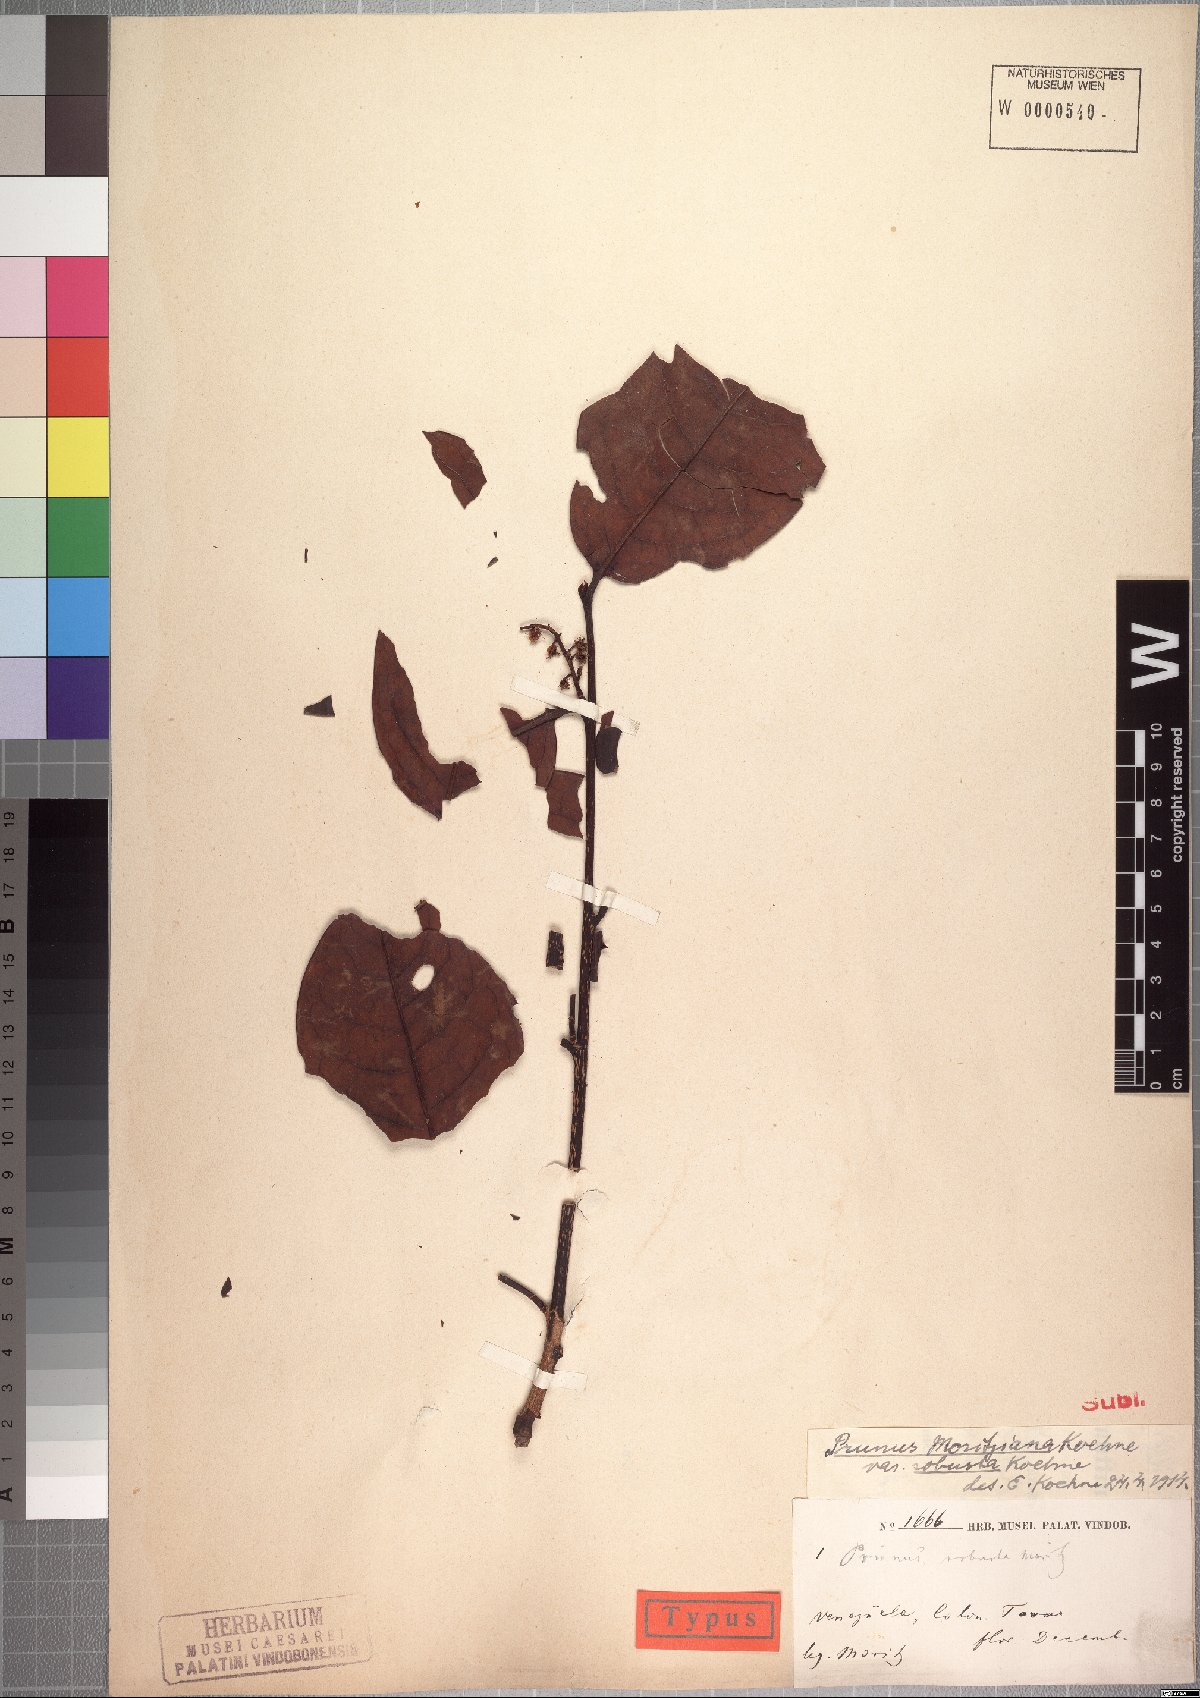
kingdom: Plantae
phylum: Tracheophyta
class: Magnoliopsida
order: Rosales
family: Rosaceae
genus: Prunus
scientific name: Prunus moritziana
